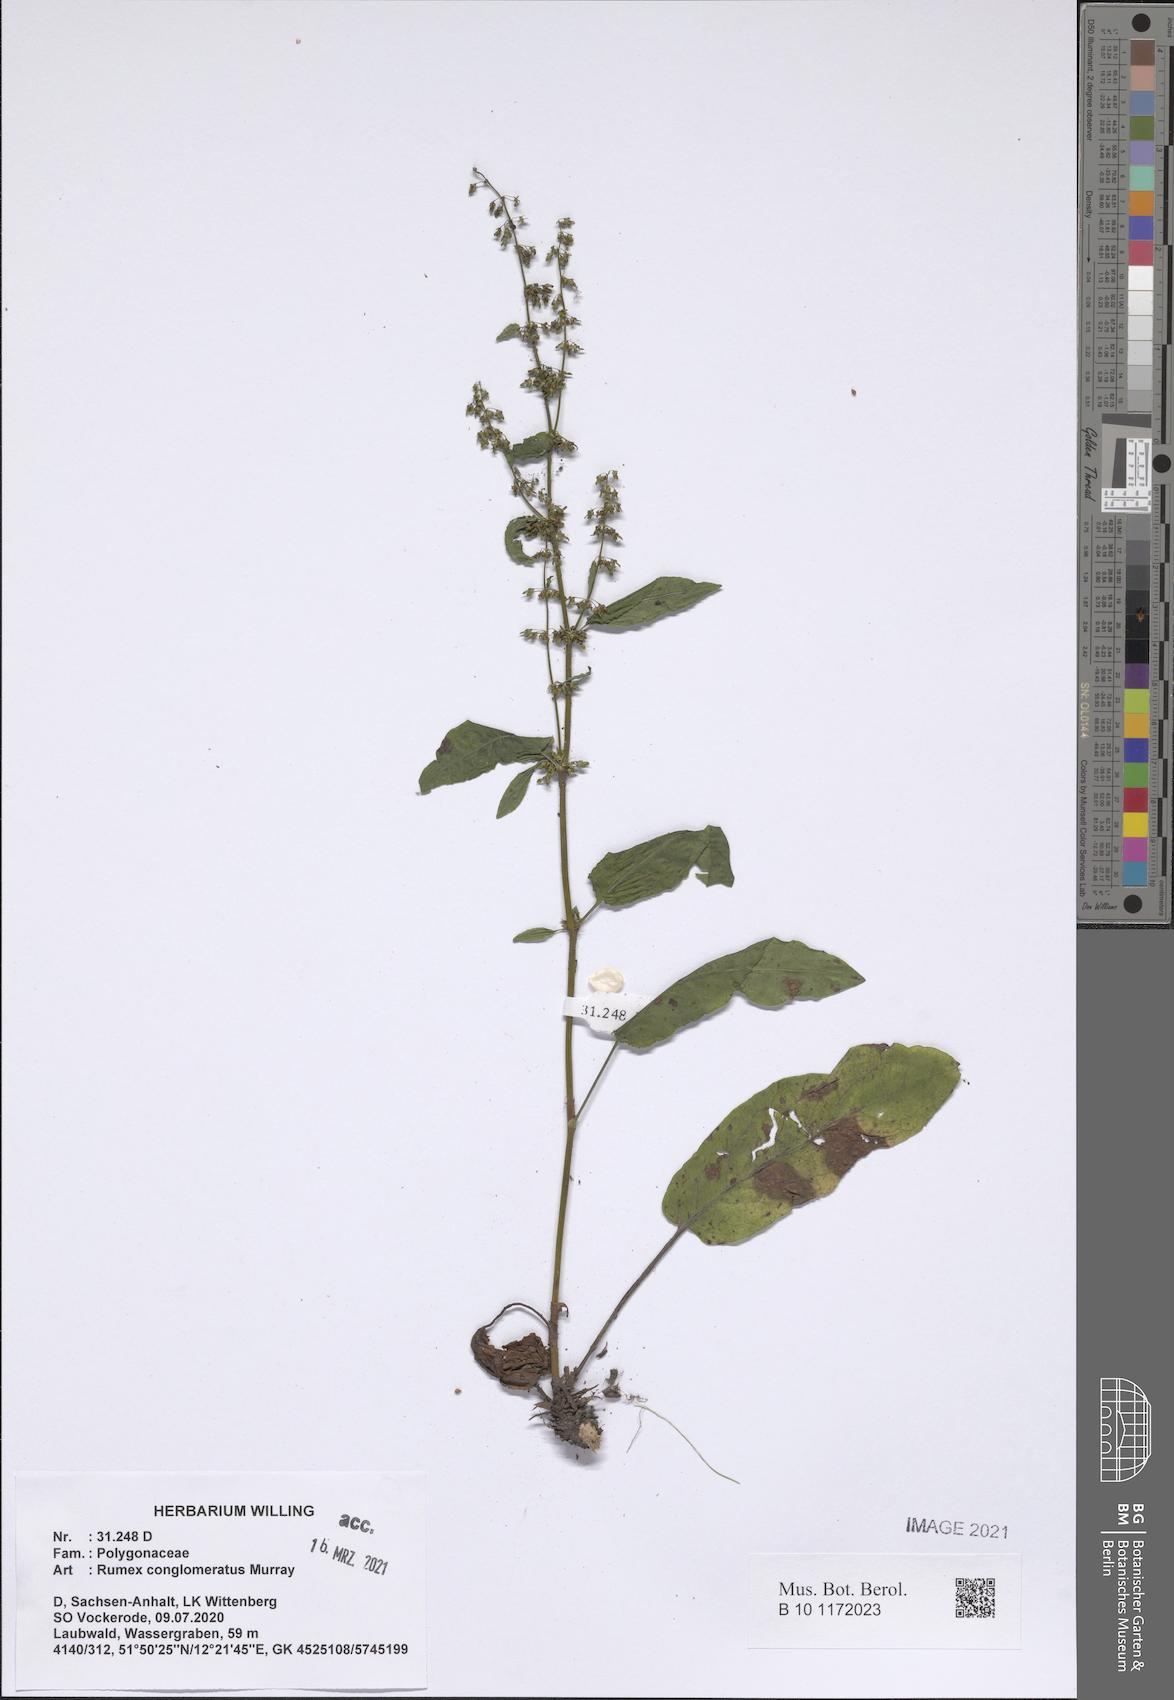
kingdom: Plantae
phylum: Tracheophyta
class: Magnoliopsida
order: Caryophyllales
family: Polygonaceae
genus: Rumex
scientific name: Rumex conglomeratus
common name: Clustered dock
